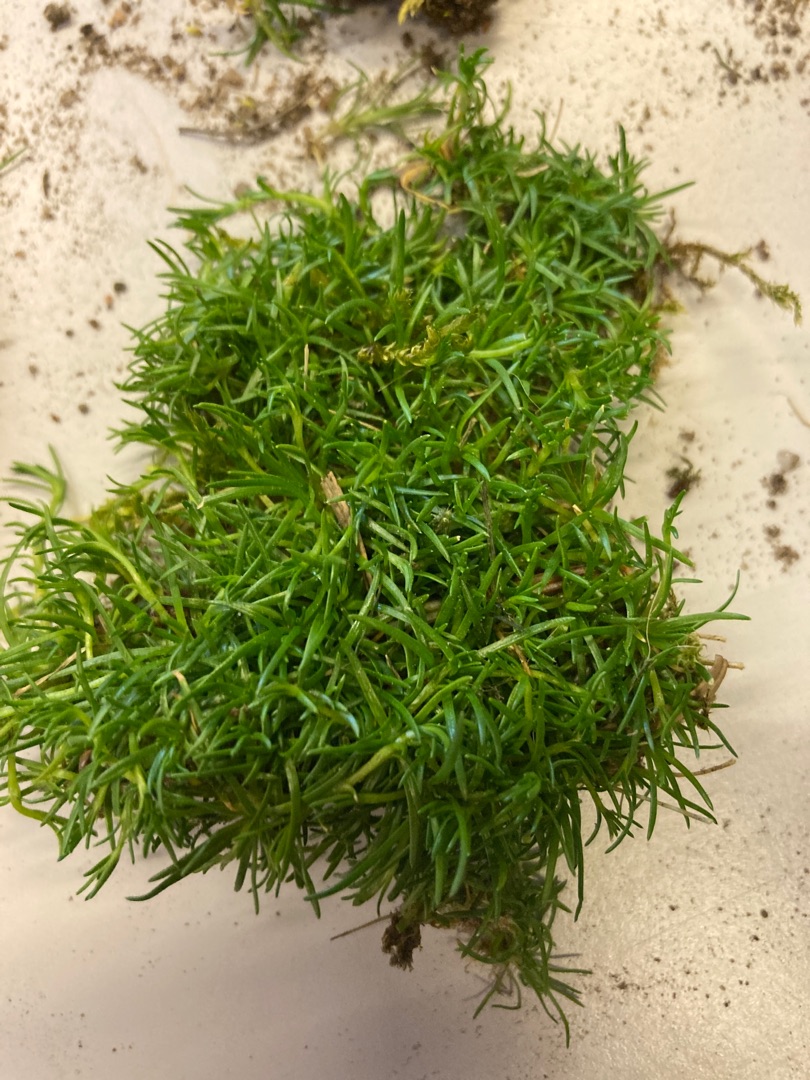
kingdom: Plantae
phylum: Tracheophyta
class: Magnoliopsida
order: Caryophyllales
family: Caryophyllaceae
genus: Sagina
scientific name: Sagina procumbens
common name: Almindelig firling
